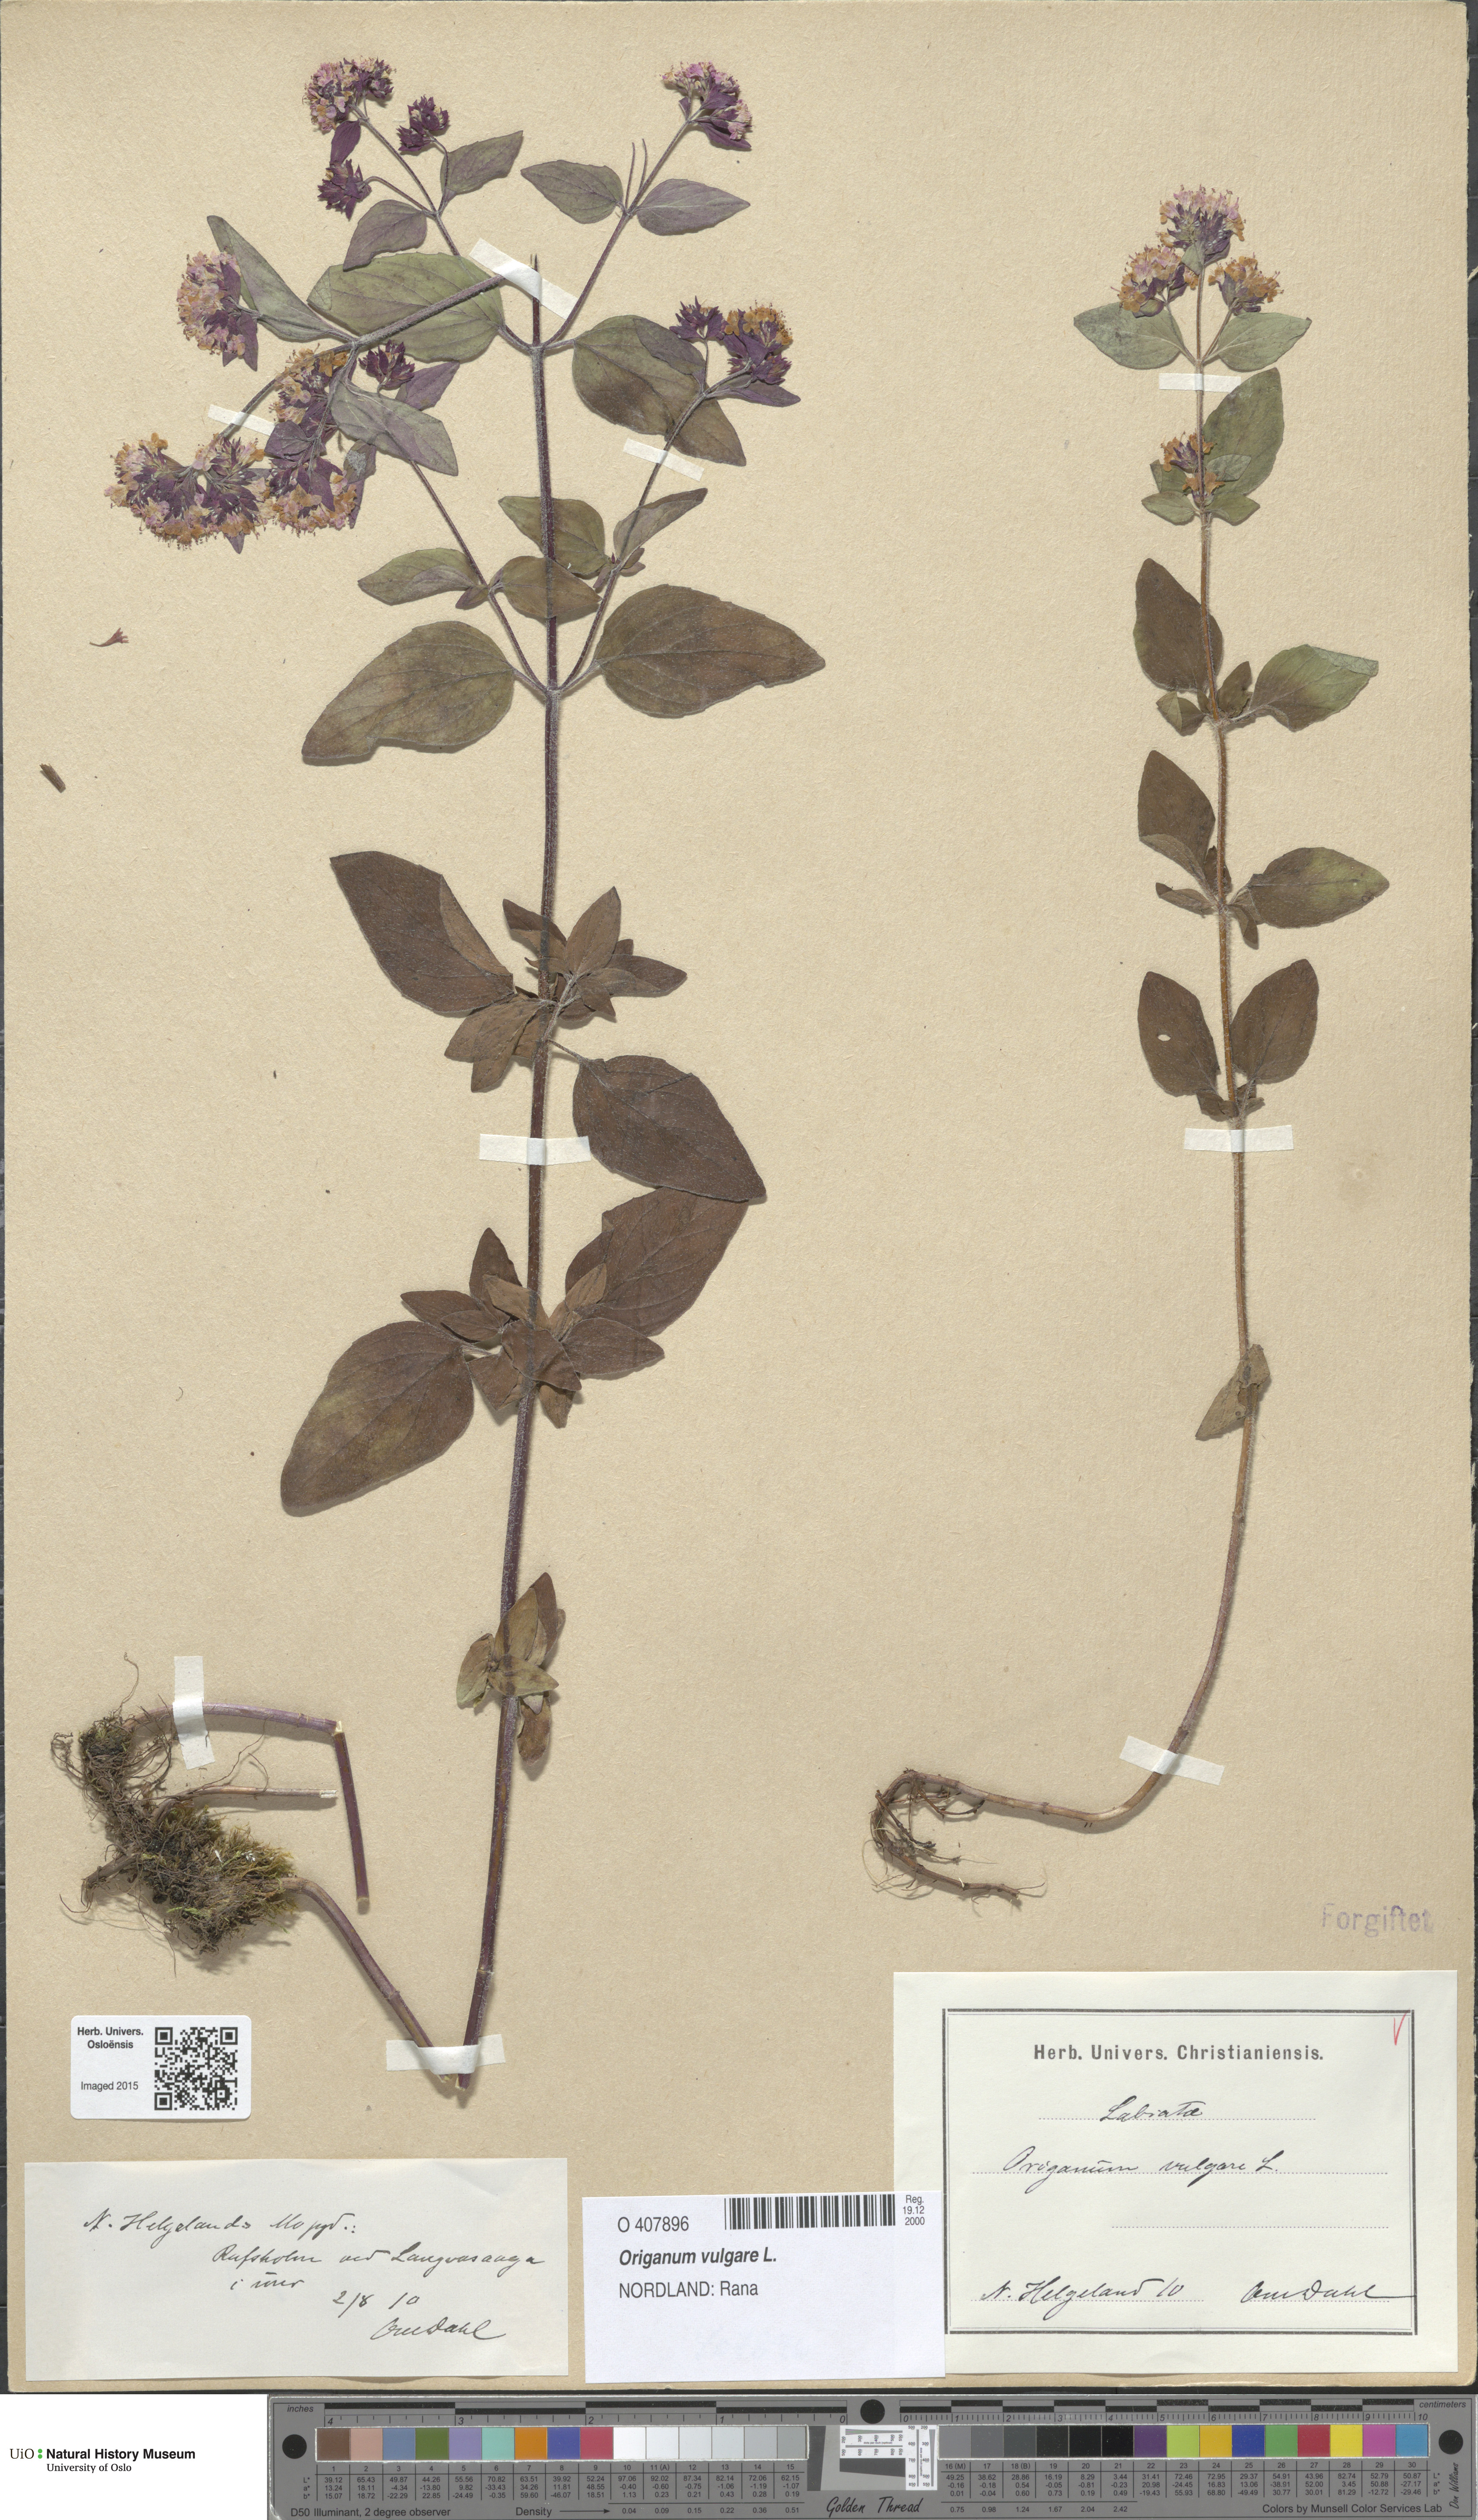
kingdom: Plantae
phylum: Tracheophyta
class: Magnoliopsida
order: Lamiales
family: Lamiaceae
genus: Origanum
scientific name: Origanum vulgare
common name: Wild marjoram
